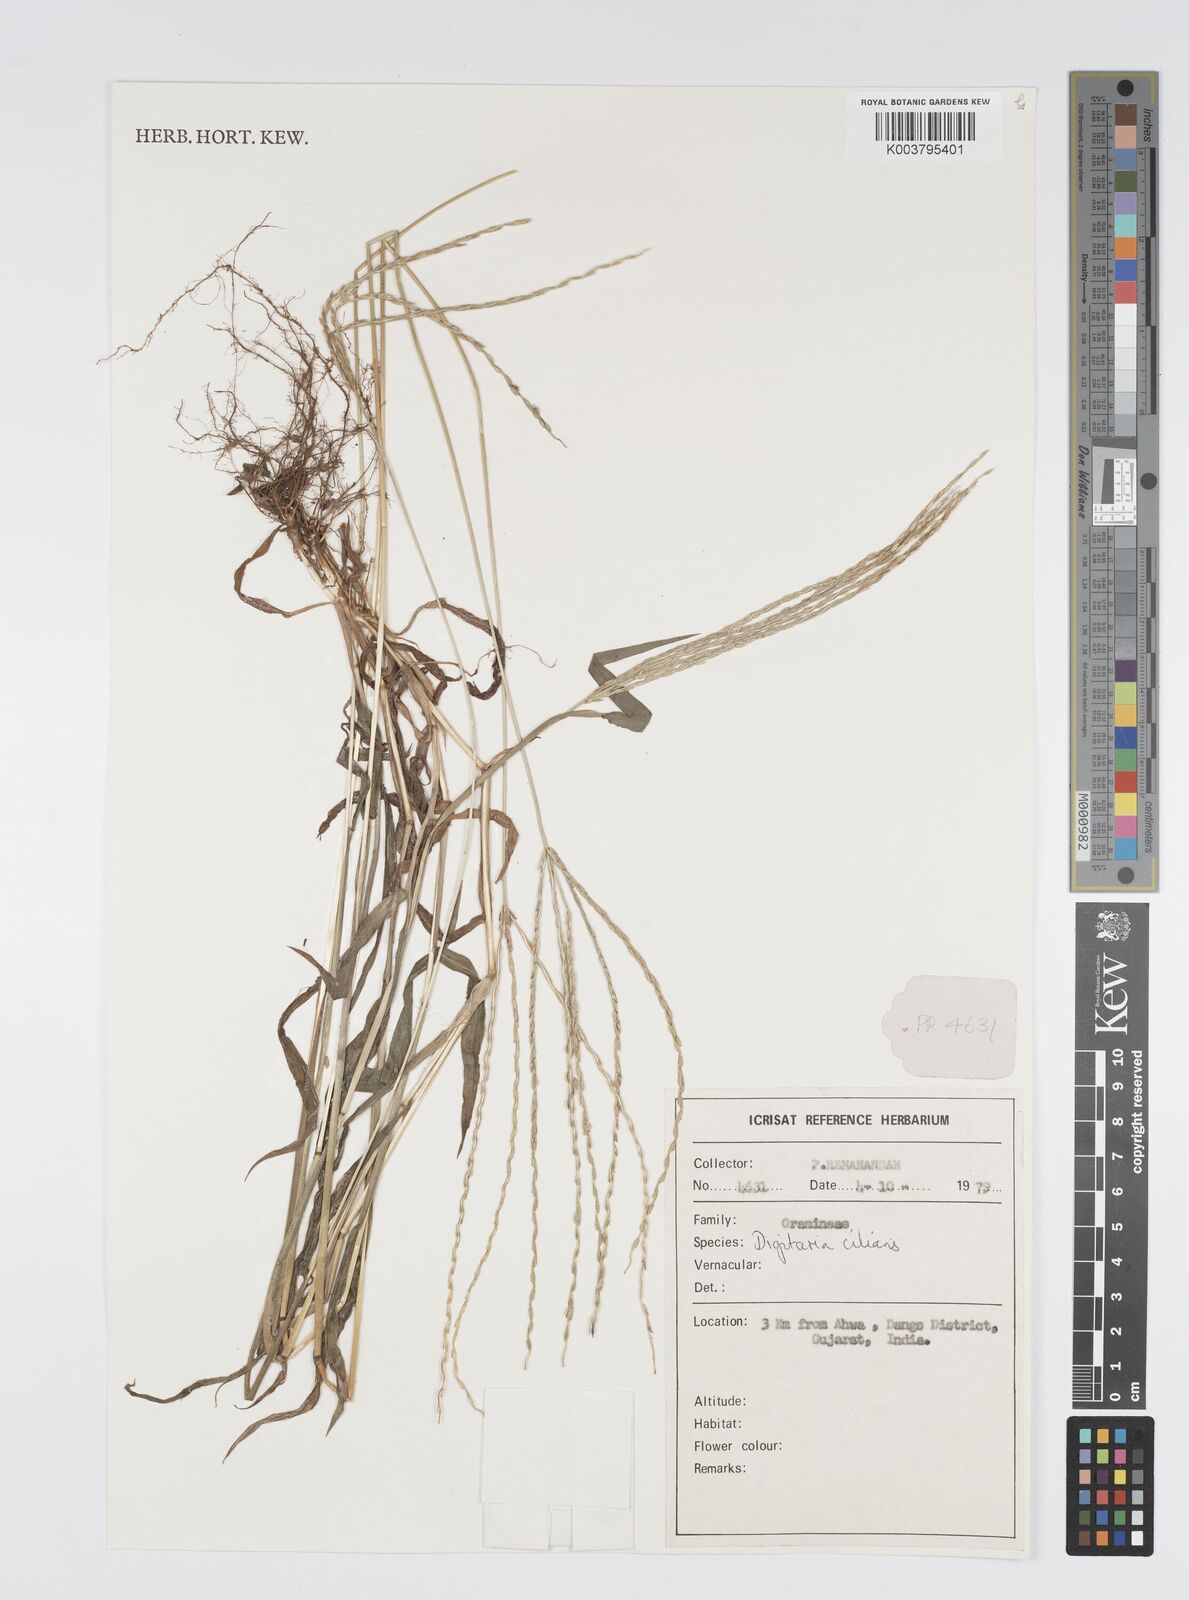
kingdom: Plantae
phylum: Tracheophyta
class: Liliopsida
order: Poales
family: Poaceae
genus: Digitaria
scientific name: Digitaria ciliaris
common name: Tropical finger-grass
